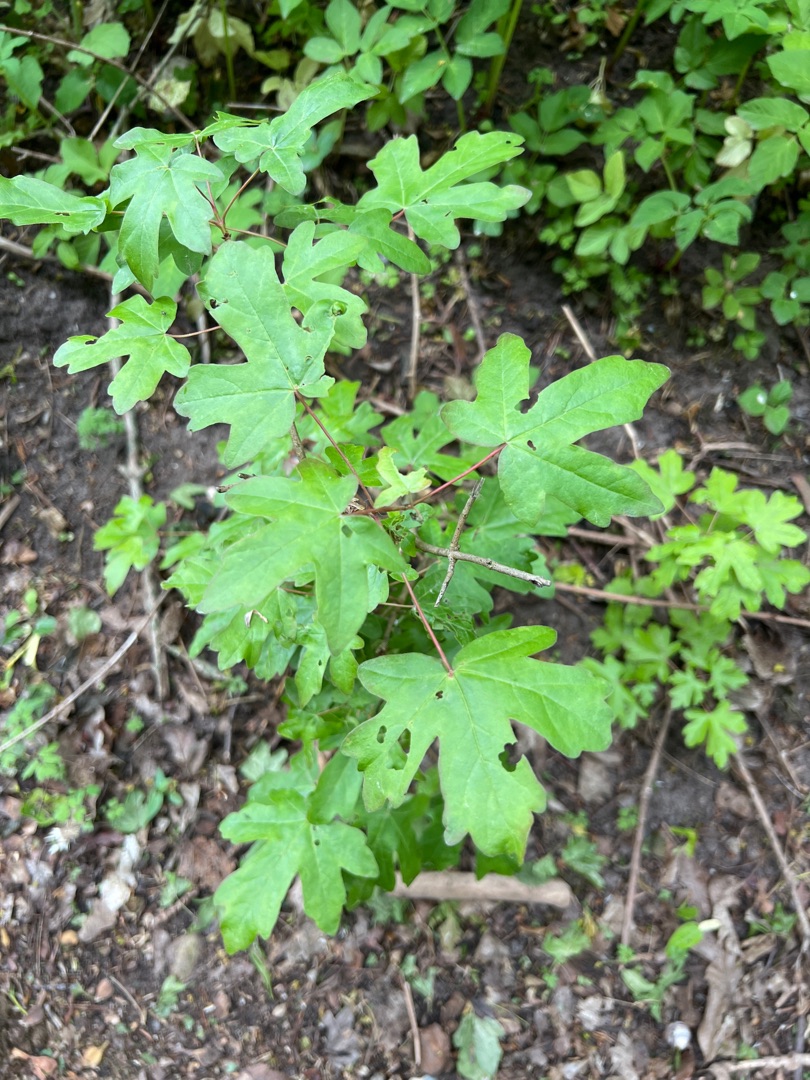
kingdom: Plantae
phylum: Tracheophyta
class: Magnoliopsida
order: Sapindales
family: Sapindaceae
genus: Acer
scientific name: Acer campestre
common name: Navr
